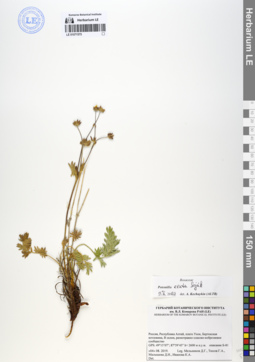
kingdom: Plantae
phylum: Tracheophyta
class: Magnoliopsida
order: Rosales
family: Rosaceae
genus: Potentilla
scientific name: Potentilla exuta
